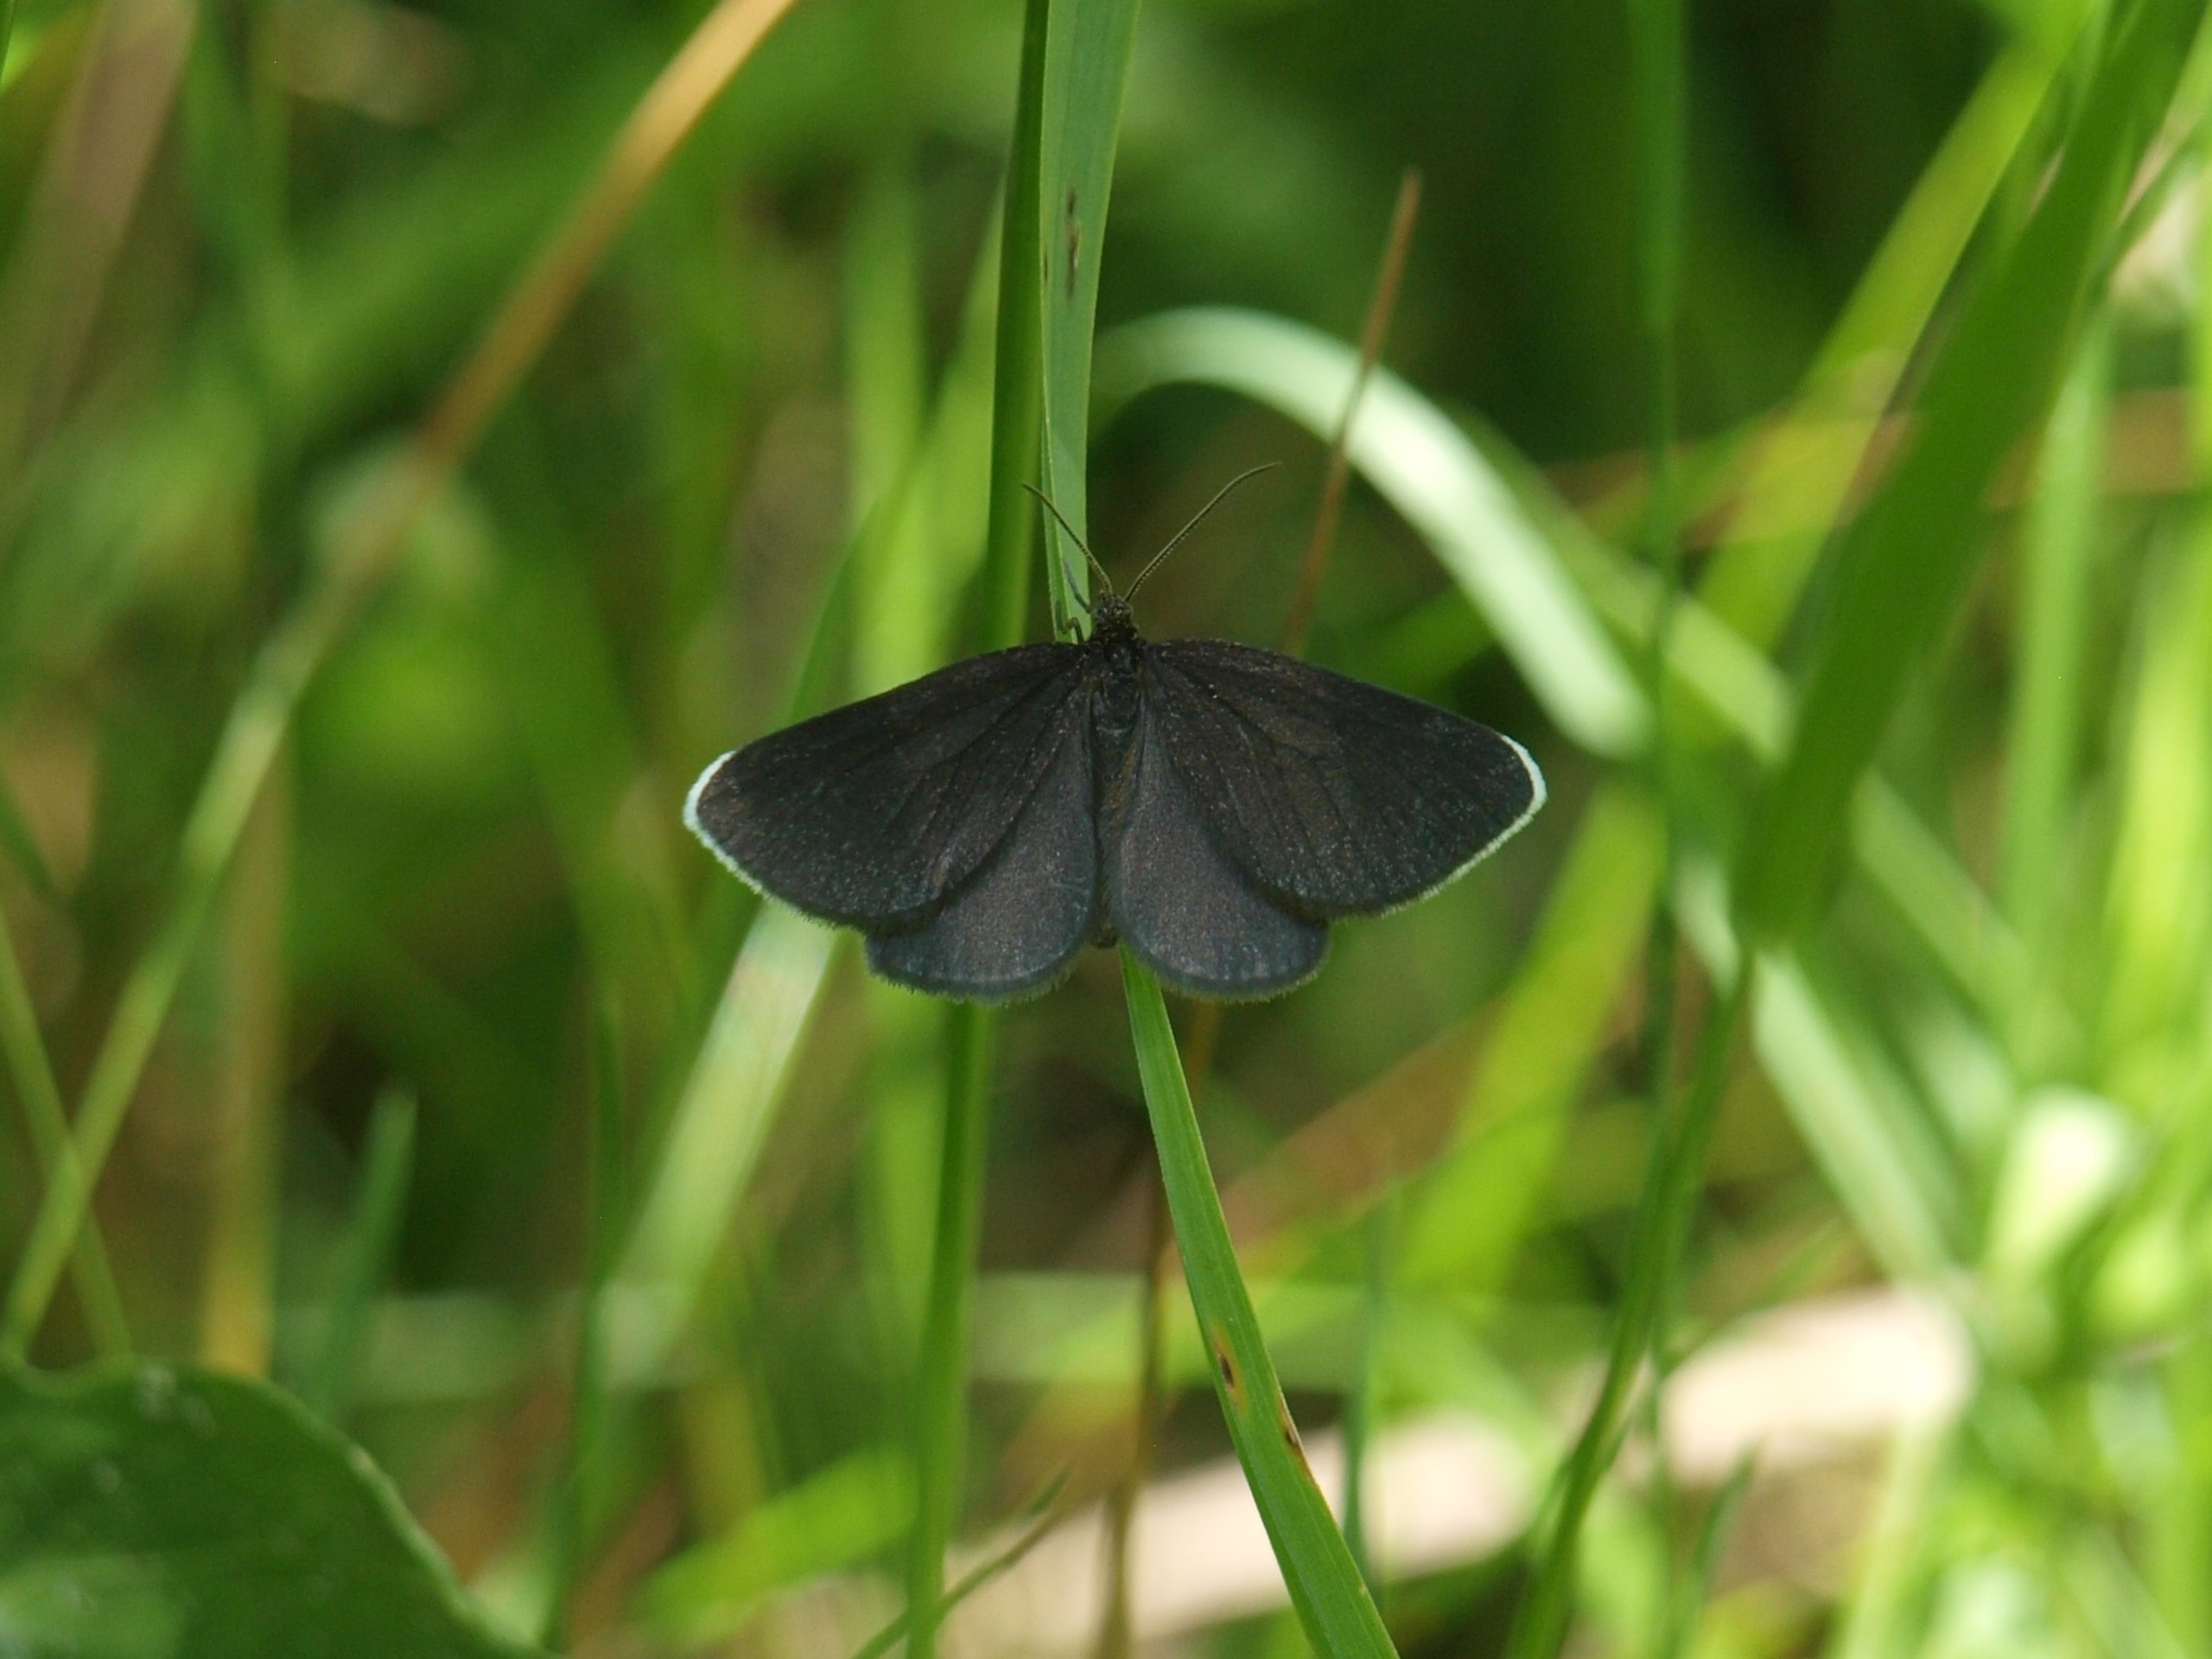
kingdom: Animalia
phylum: Arthropoda
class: Insecta
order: Lepidoptera
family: Geometridae
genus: Odezia
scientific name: Odezia atrata
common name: Sort måler
